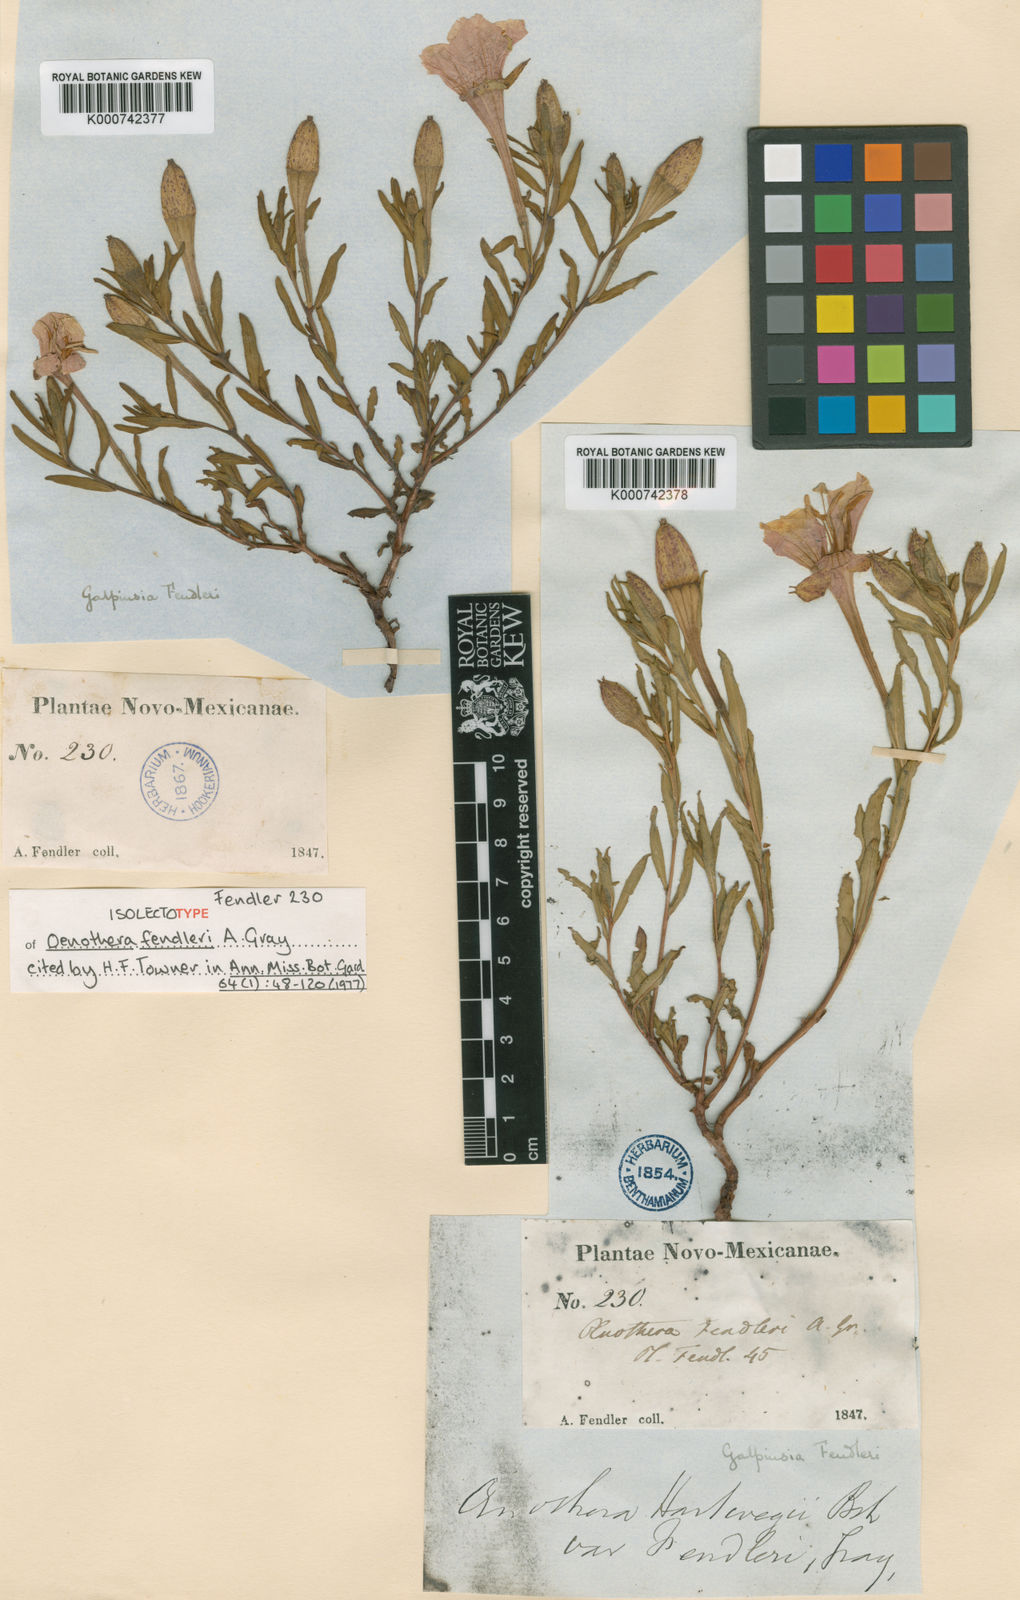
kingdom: Plantae
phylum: Tracheophyta
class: Magnoliopsida
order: Myrtales
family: Onagraceae
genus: Oenothera
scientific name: Oenothera hartwegii
